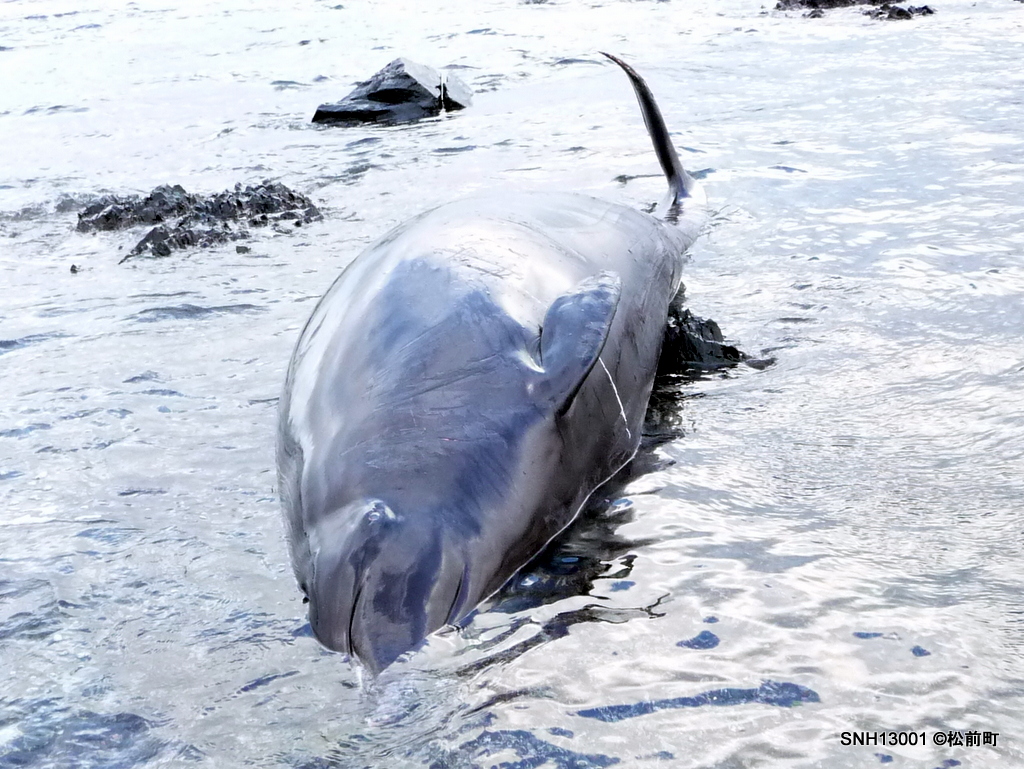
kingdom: Animalia
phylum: Chordata
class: Mammalia
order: Cetacea
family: Hyperoodontidae
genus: Mesoplodon
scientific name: Mesoplodon stejnegeri
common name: Stejneger's beaked whale
